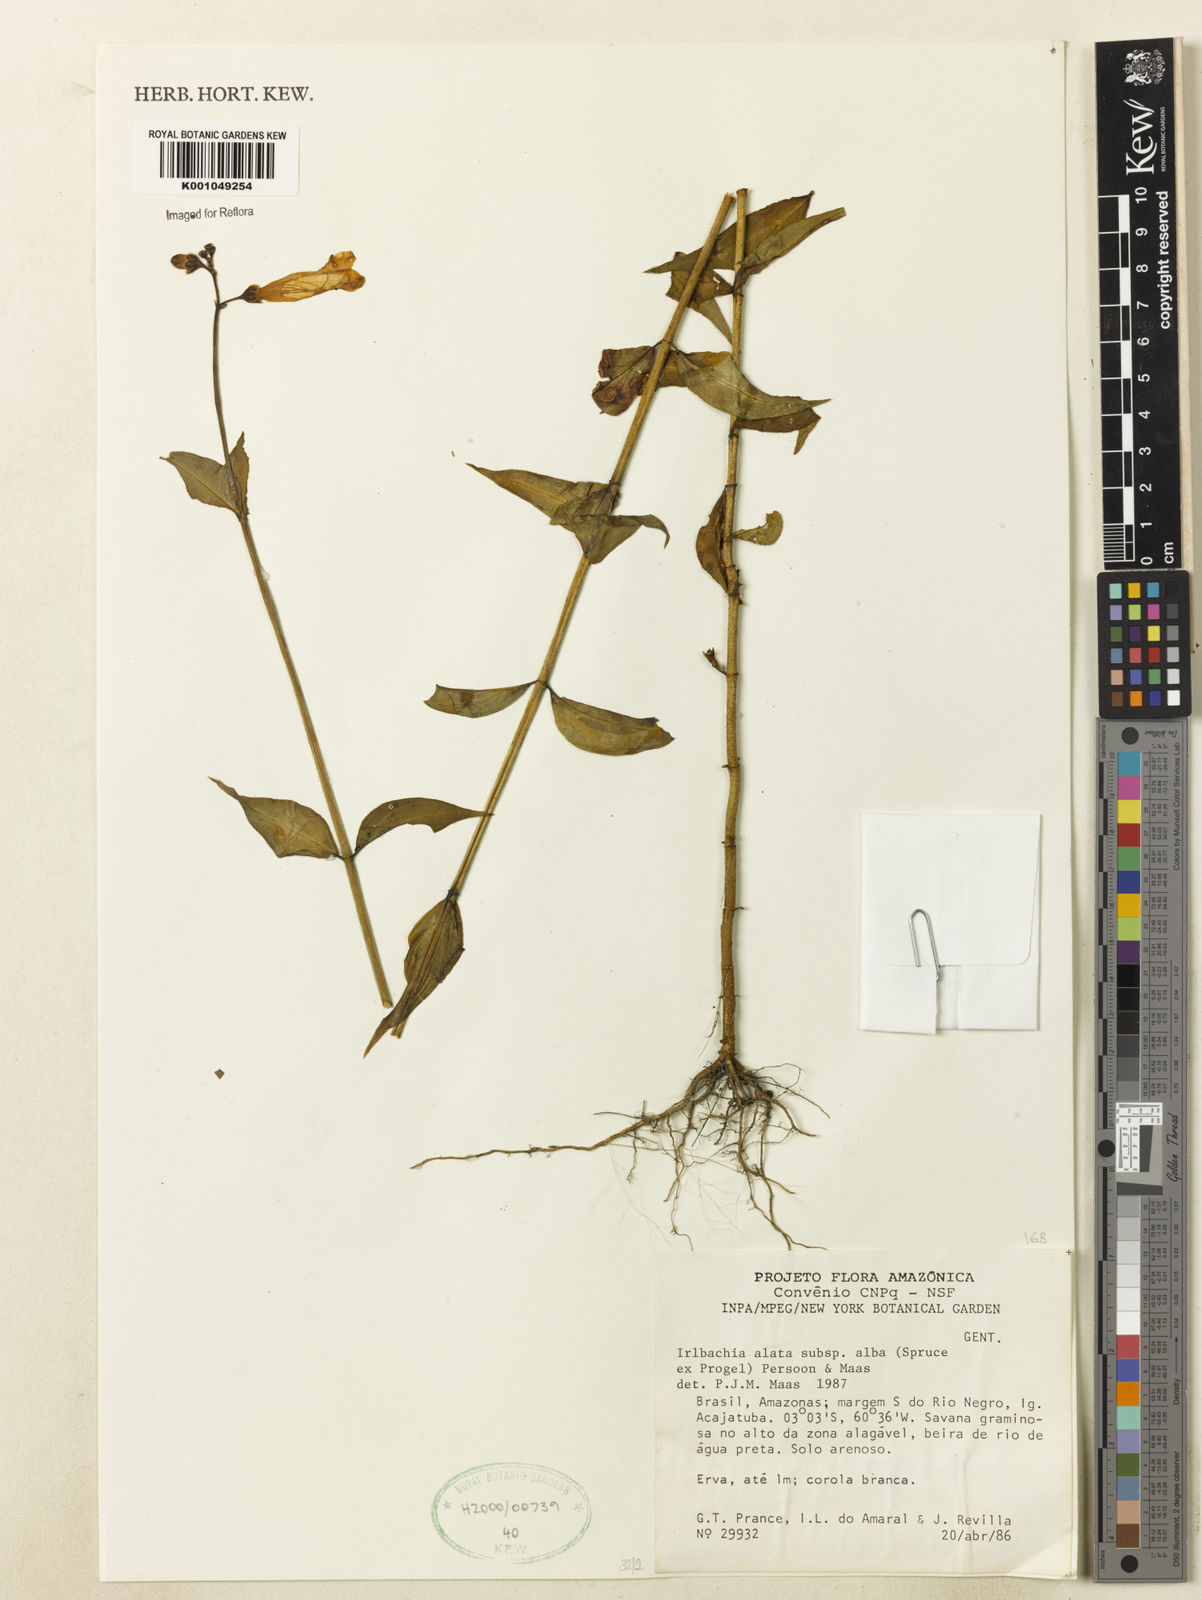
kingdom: Plantae
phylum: Tracheophyta
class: Magnoliopsida
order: Gentianales
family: Gentianaceae
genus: Chelonanthus
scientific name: Chelonanthus albus
